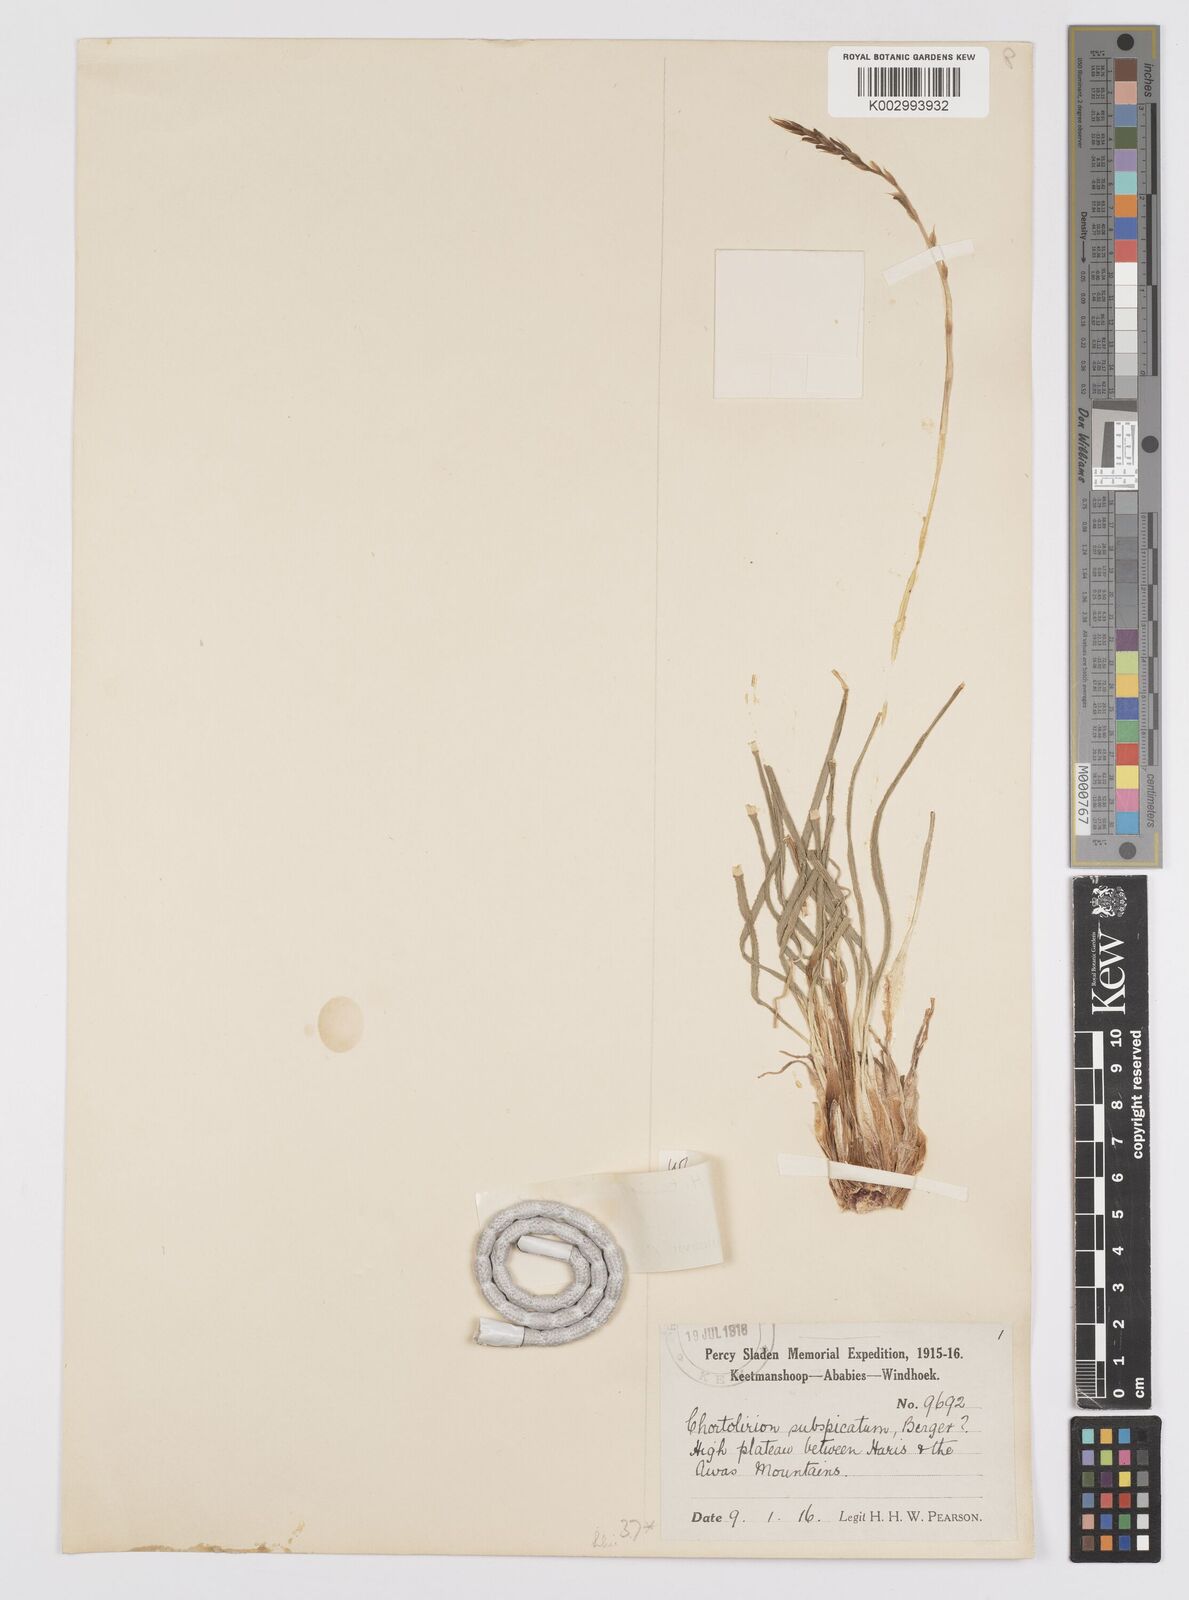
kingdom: Plantae
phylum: Tracheophyta
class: Liliopsida
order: Asparagales
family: Asphodelaceae
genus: Aloe
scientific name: Aloe welwitschii
